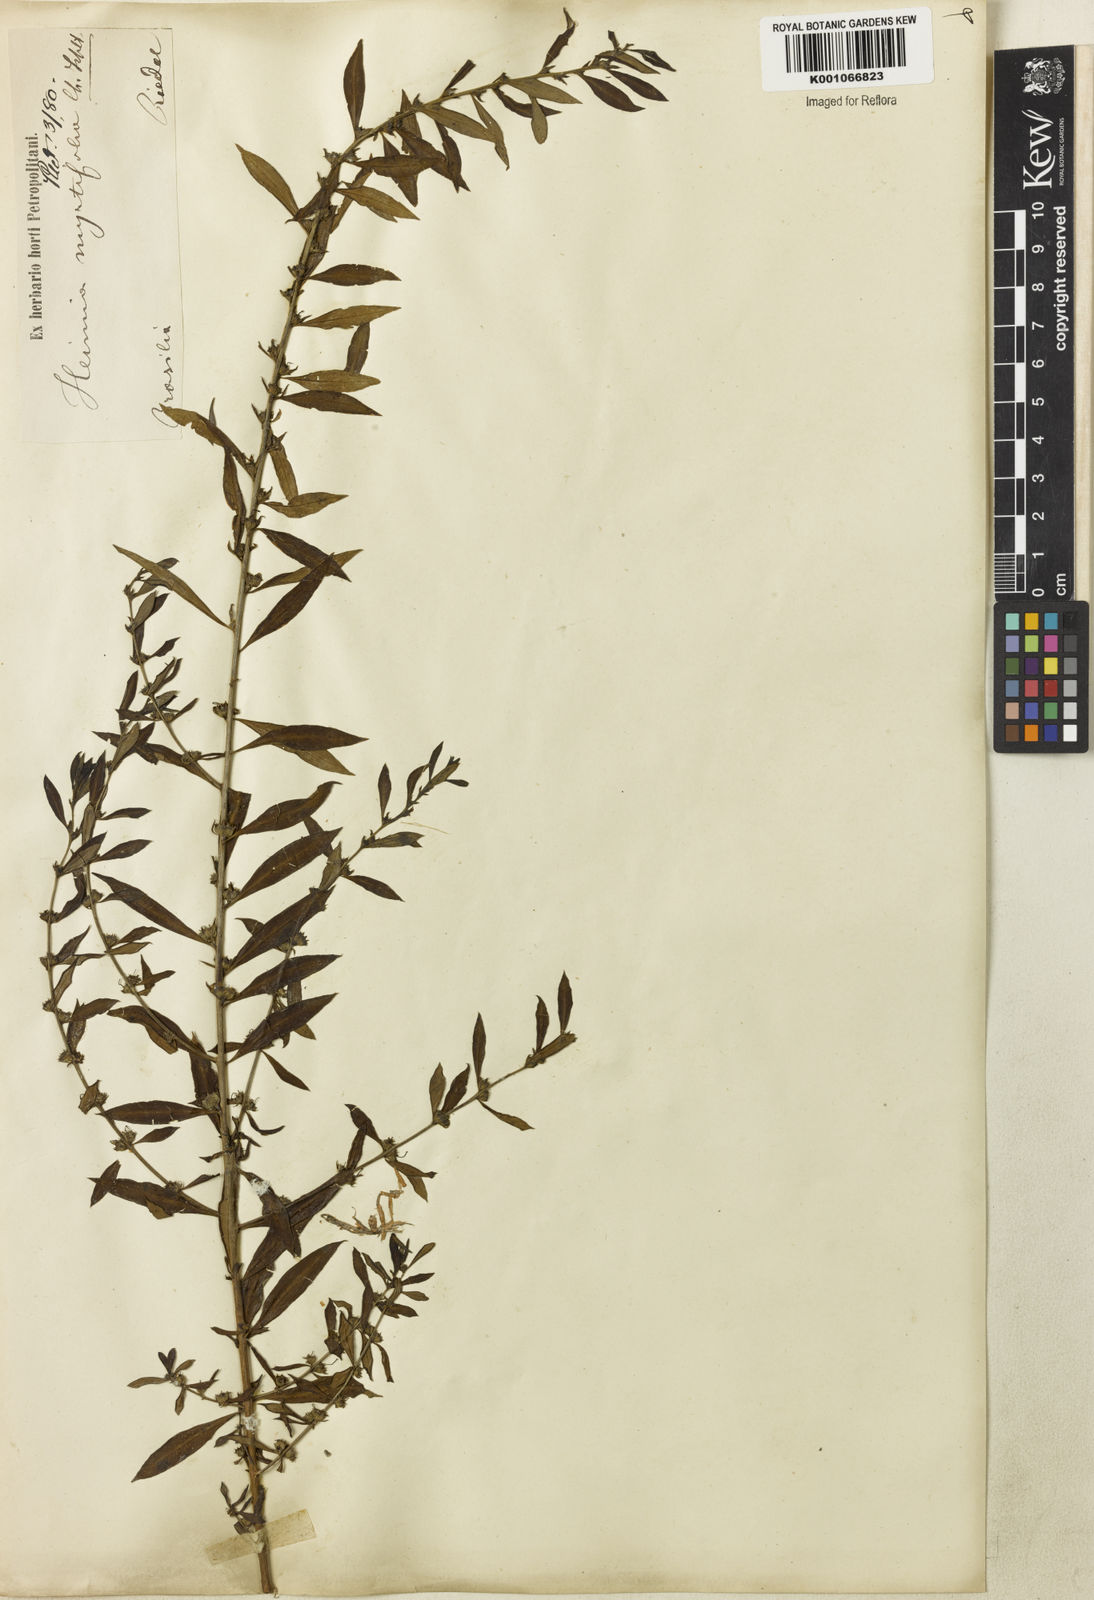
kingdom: Plantae
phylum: Tracheophyta
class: Magnoliopsida
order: Myrtales
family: Lythraceae
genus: Heimia
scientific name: Heimia apetala
